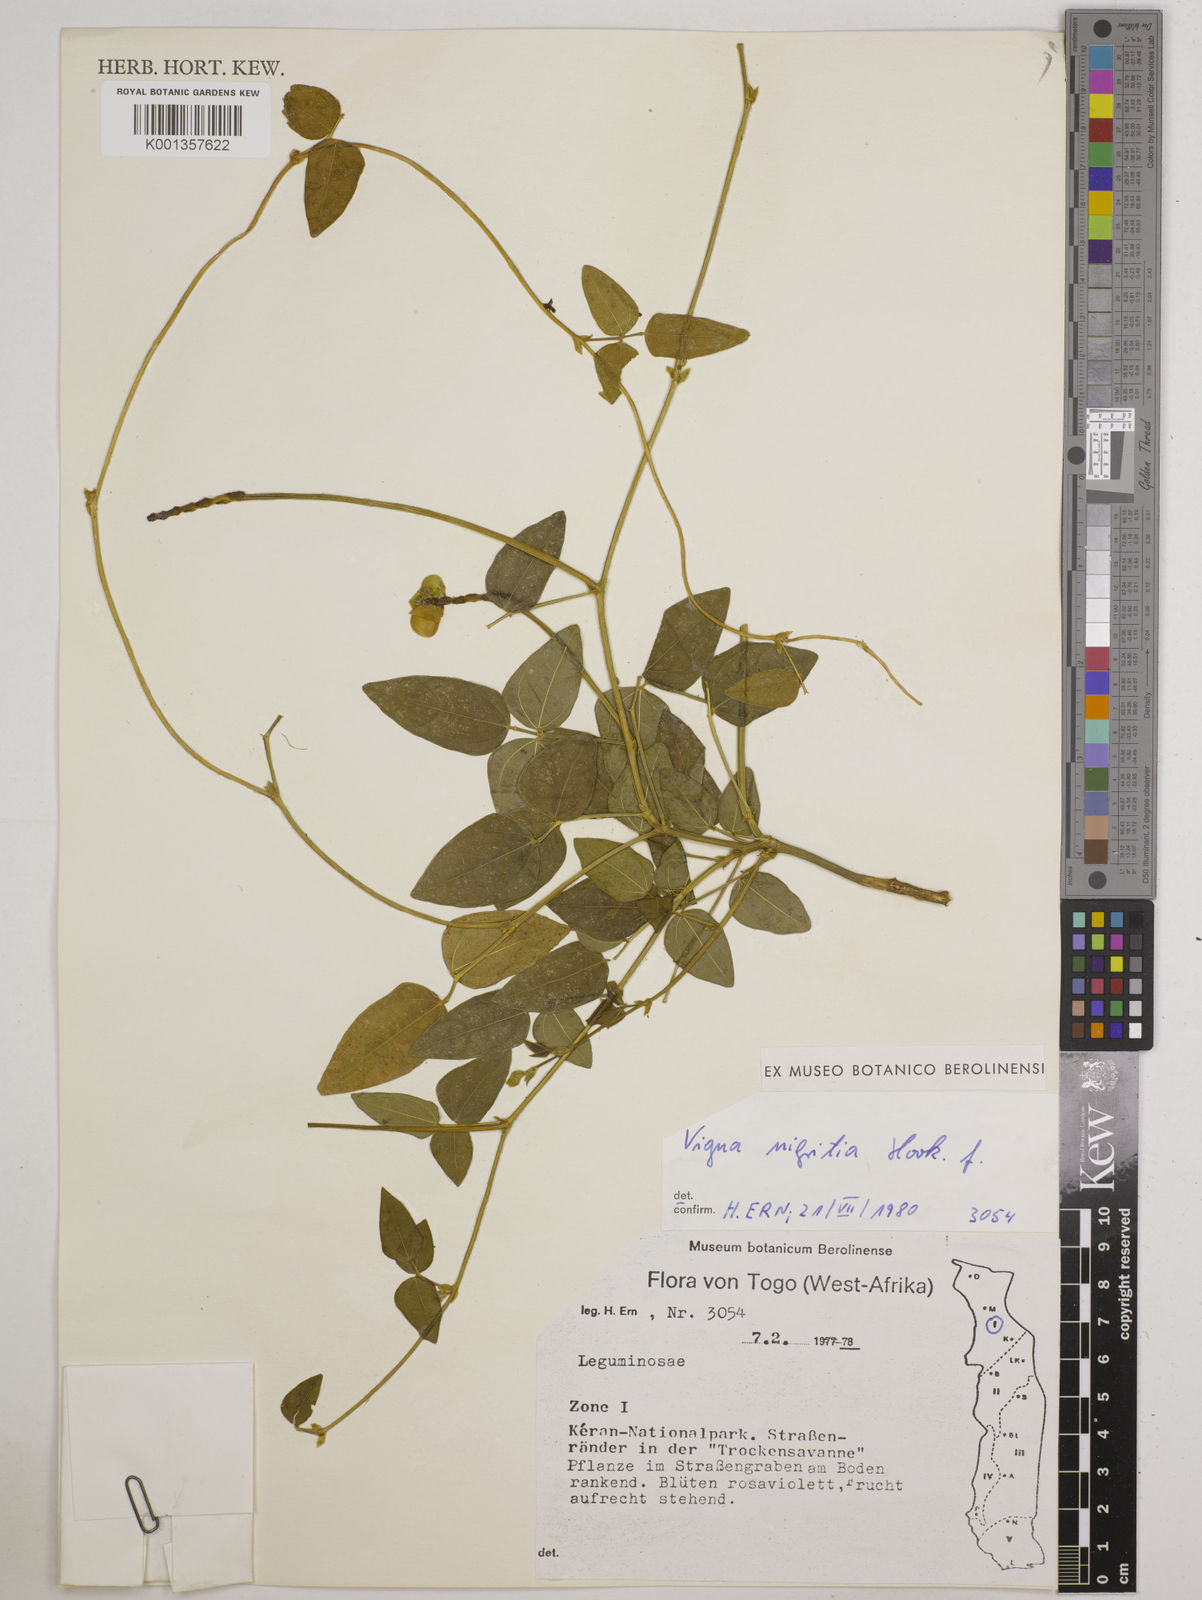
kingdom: Plantae
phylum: Tracheophyta
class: Magnoliopsida
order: Fabales
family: Fabaceae
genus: Vigna
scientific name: Vigna nigritia
